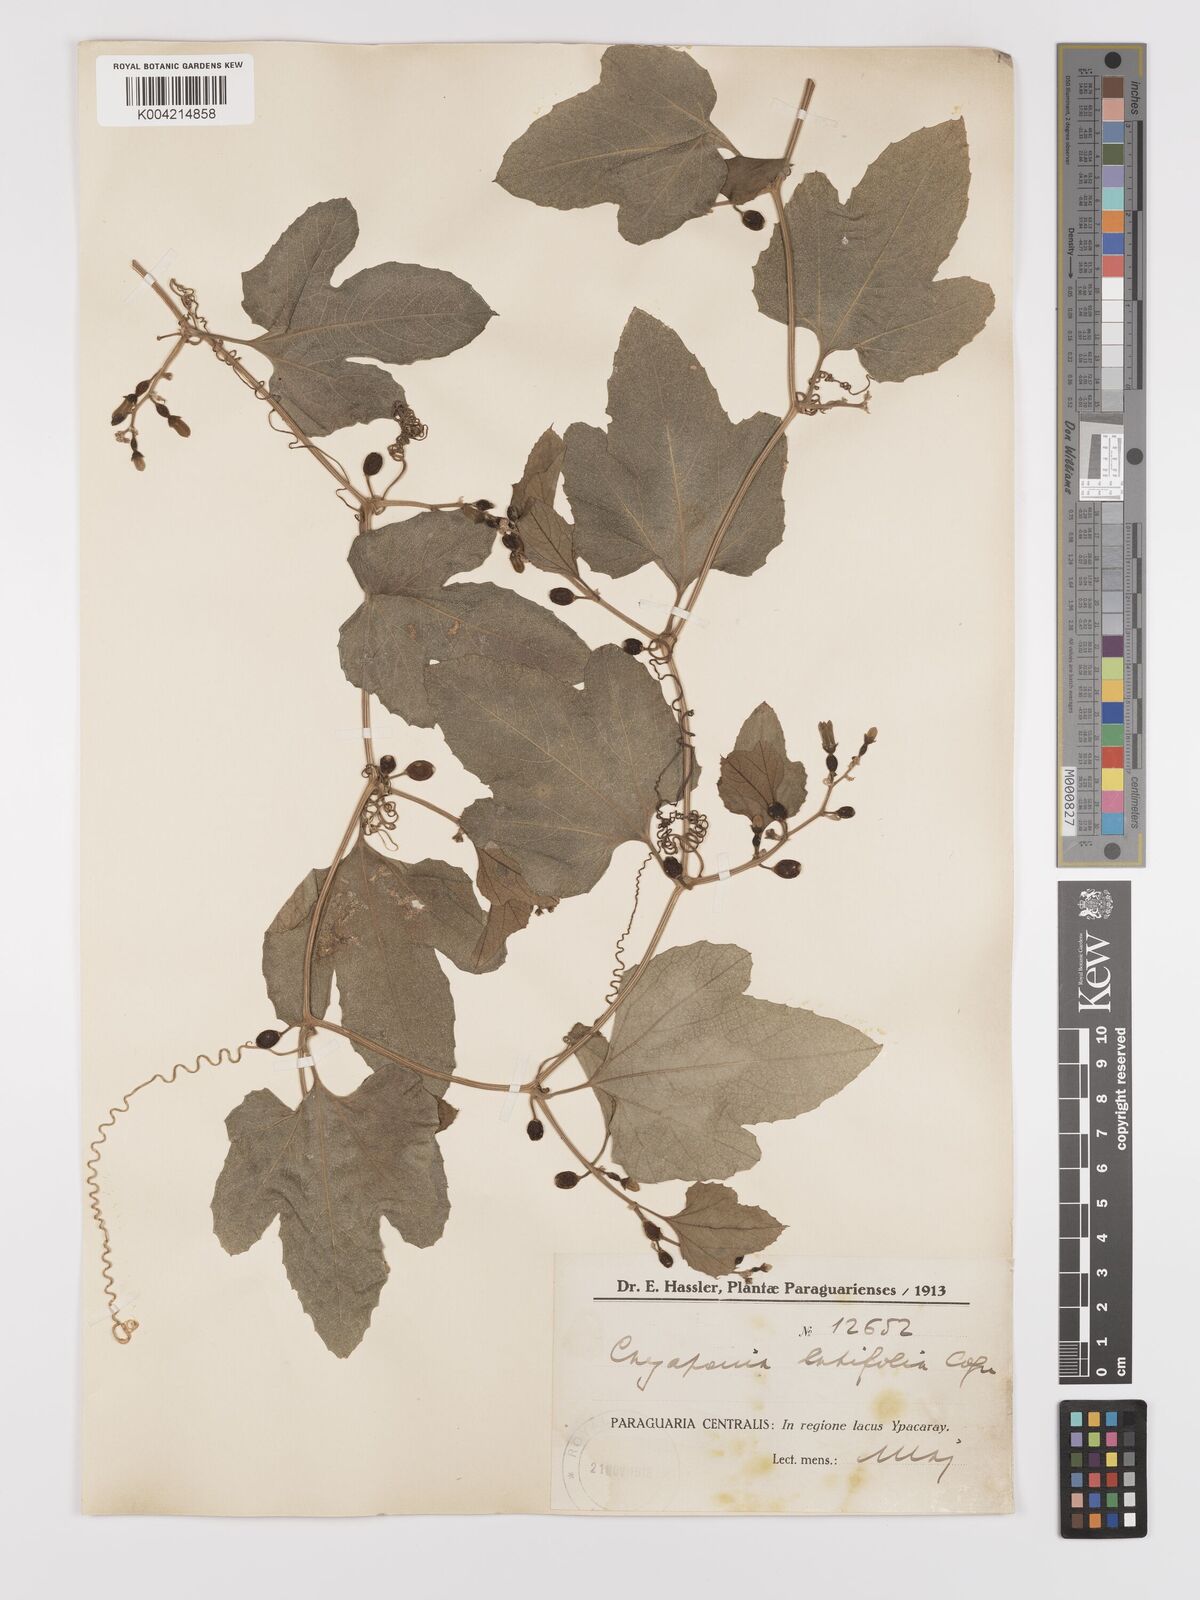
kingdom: Plantae
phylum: Tracheophyta
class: Magnoliopsida
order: Cucurbitales
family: Cucurbitaceae
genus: Cayaponia
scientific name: Cayaponia citrullifolia
